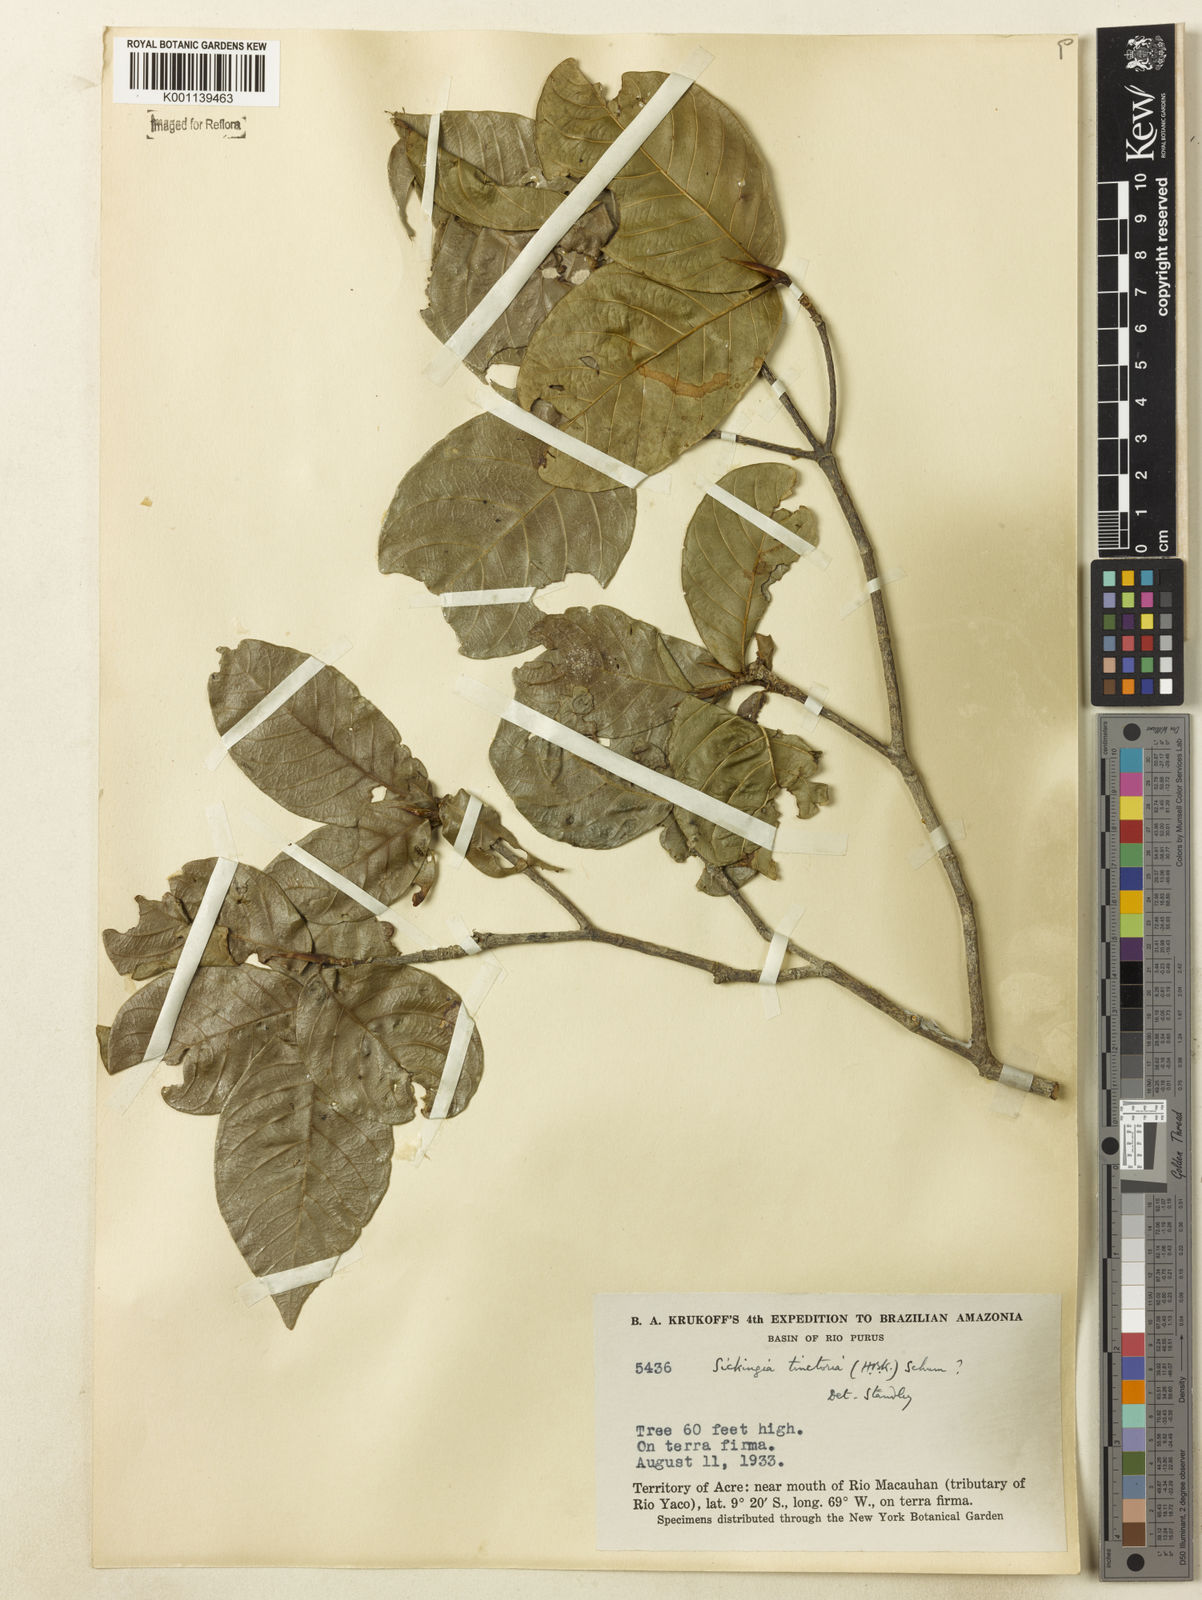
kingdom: Plantae
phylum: Tracheophyta
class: Magnoliopsida
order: Gentianales
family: Rubiaceae
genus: Simira
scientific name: Simira rubescens
